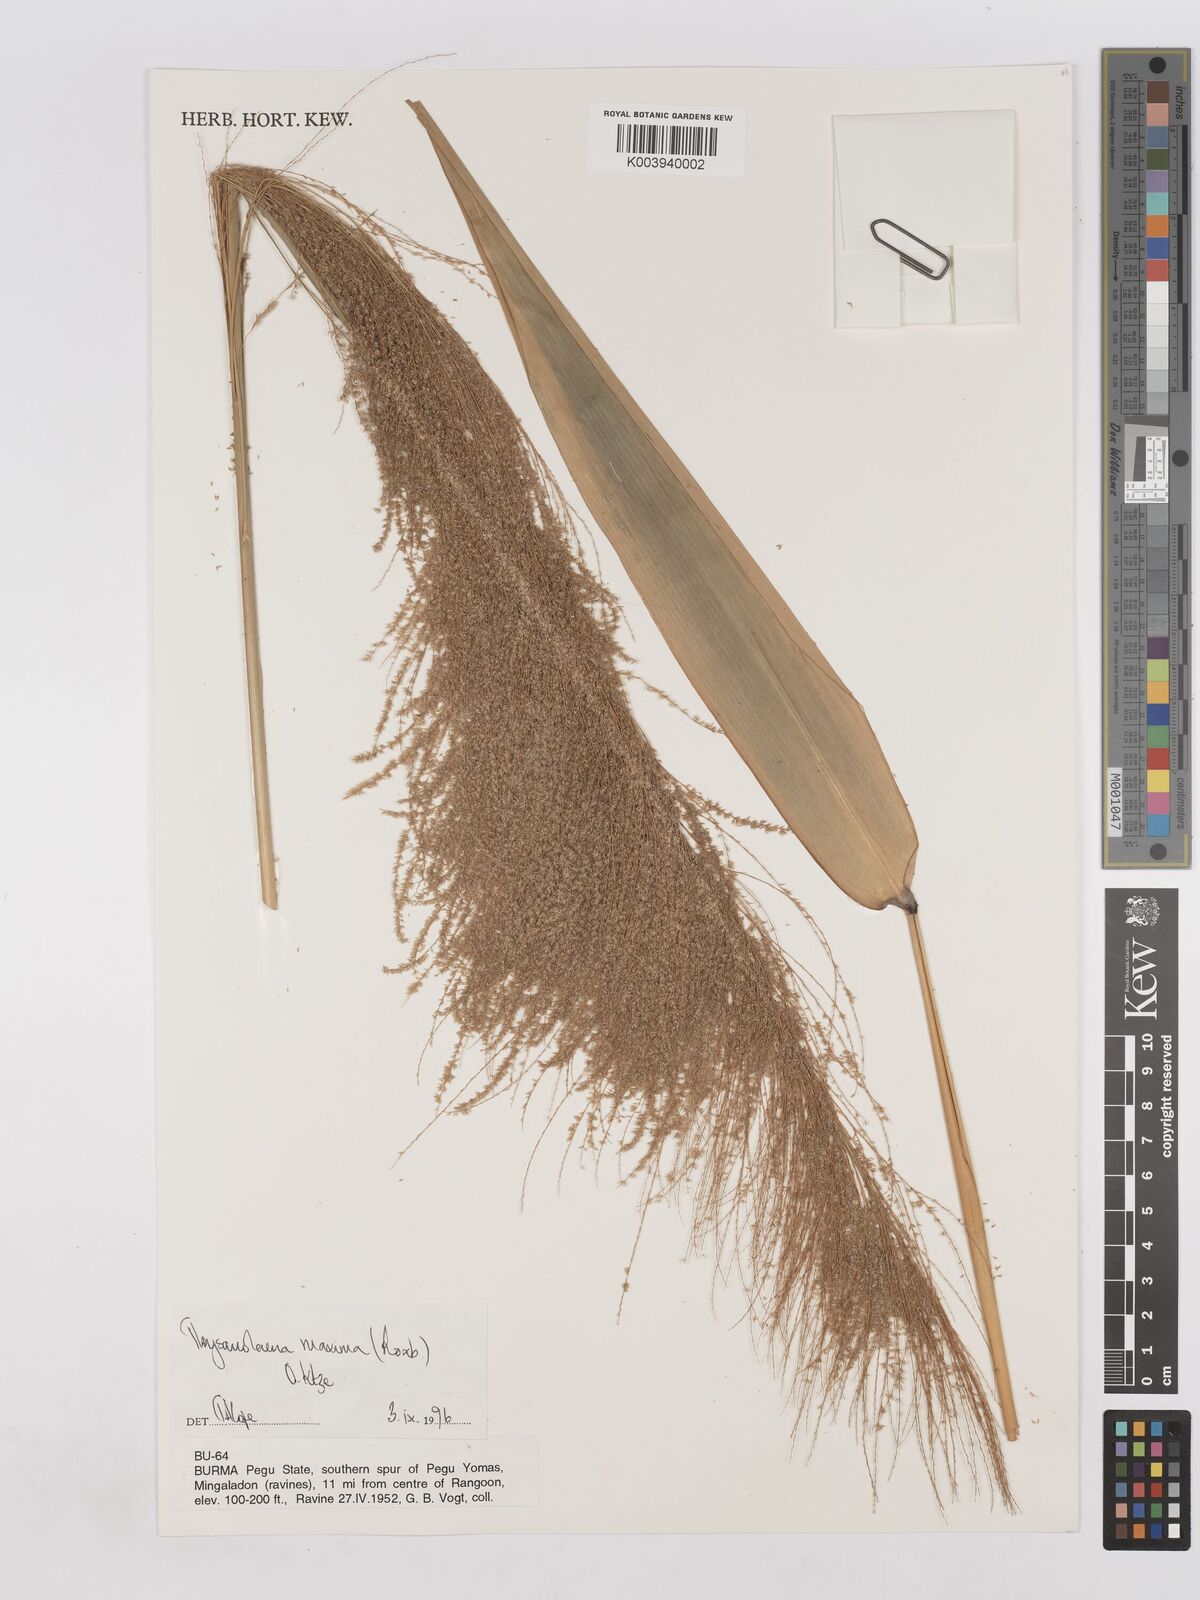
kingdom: Plantae
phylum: Tracheophyta
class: Liliopsida
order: Poales
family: Poaceae
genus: Thysanolaena
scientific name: Thysanolaena latifolia
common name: Tiger grass
